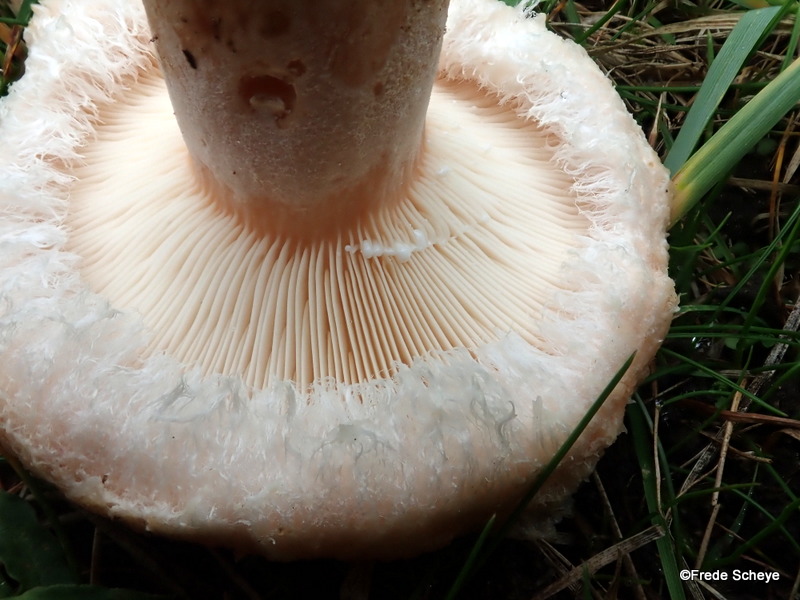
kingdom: Fungi
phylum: Basidiomycota
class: Agaricomycetes
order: Russulales
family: Russulaceae
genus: Lactarius
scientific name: Lactarius pubescens
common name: dunet mælkehat
